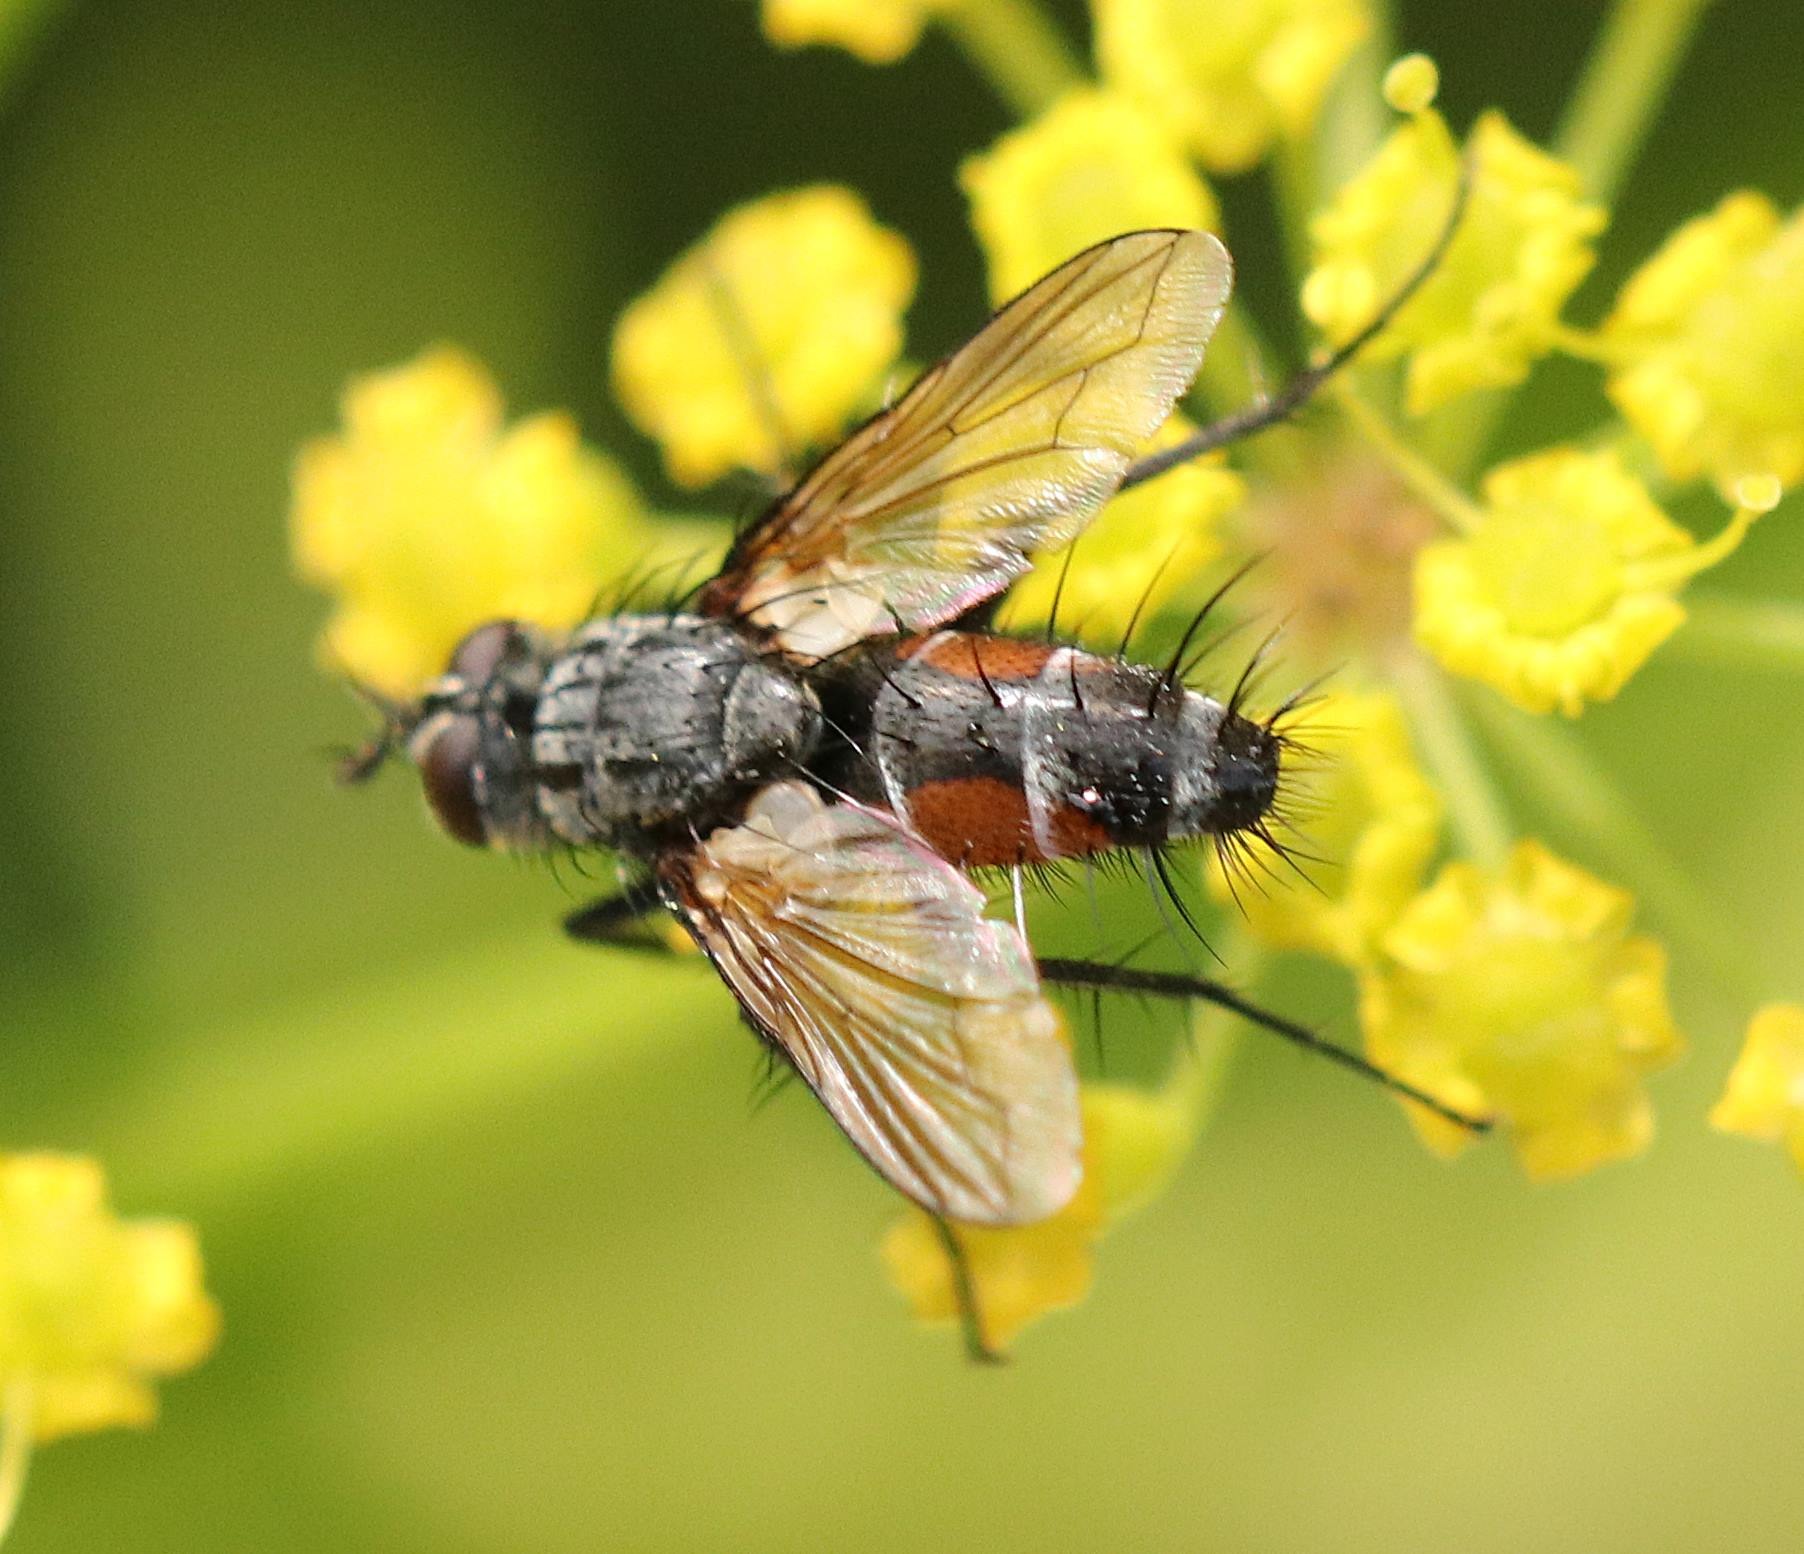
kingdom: Animalia
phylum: Arthropoda
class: Insecta
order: Diptera
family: Tachinidae
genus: Eriothrix
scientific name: Eriothrix rufomaculatus
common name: Rød snylteflue
